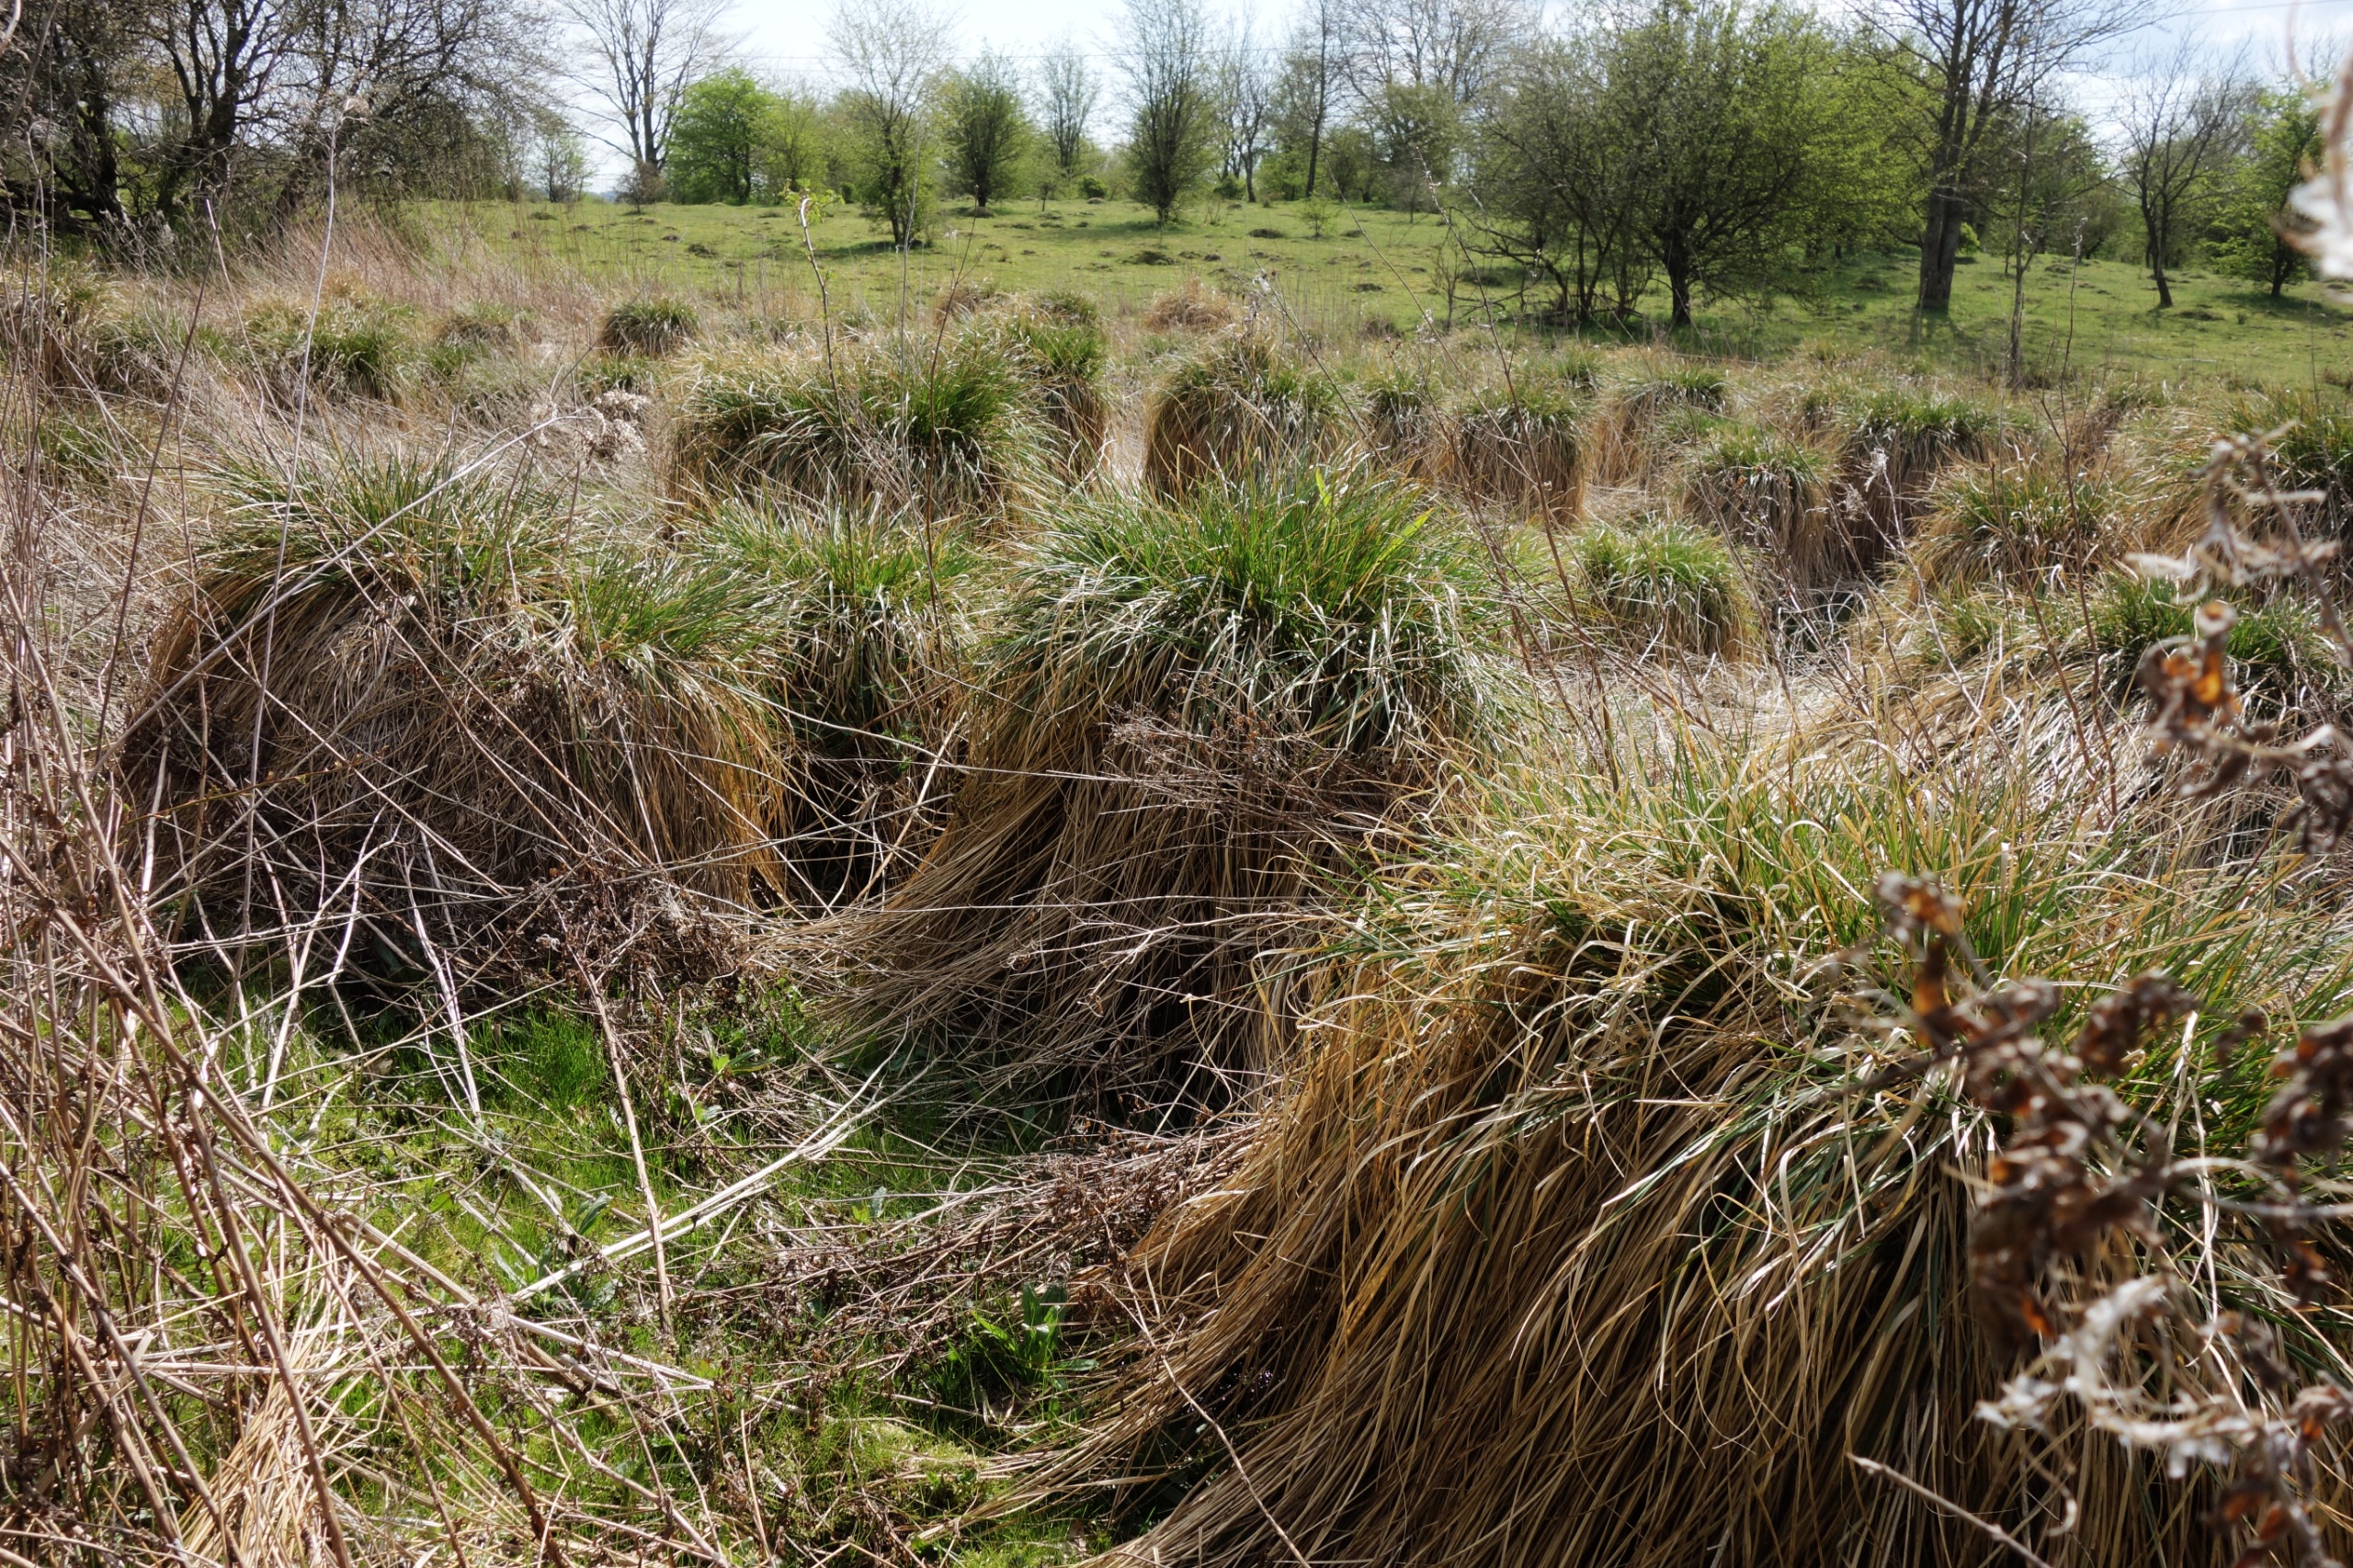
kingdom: Plantae
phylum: Tracheophyta
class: Liliopsida
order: Poales
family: Cyperaceae
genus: Carex
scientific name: Carex paniculata
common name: Top-star
